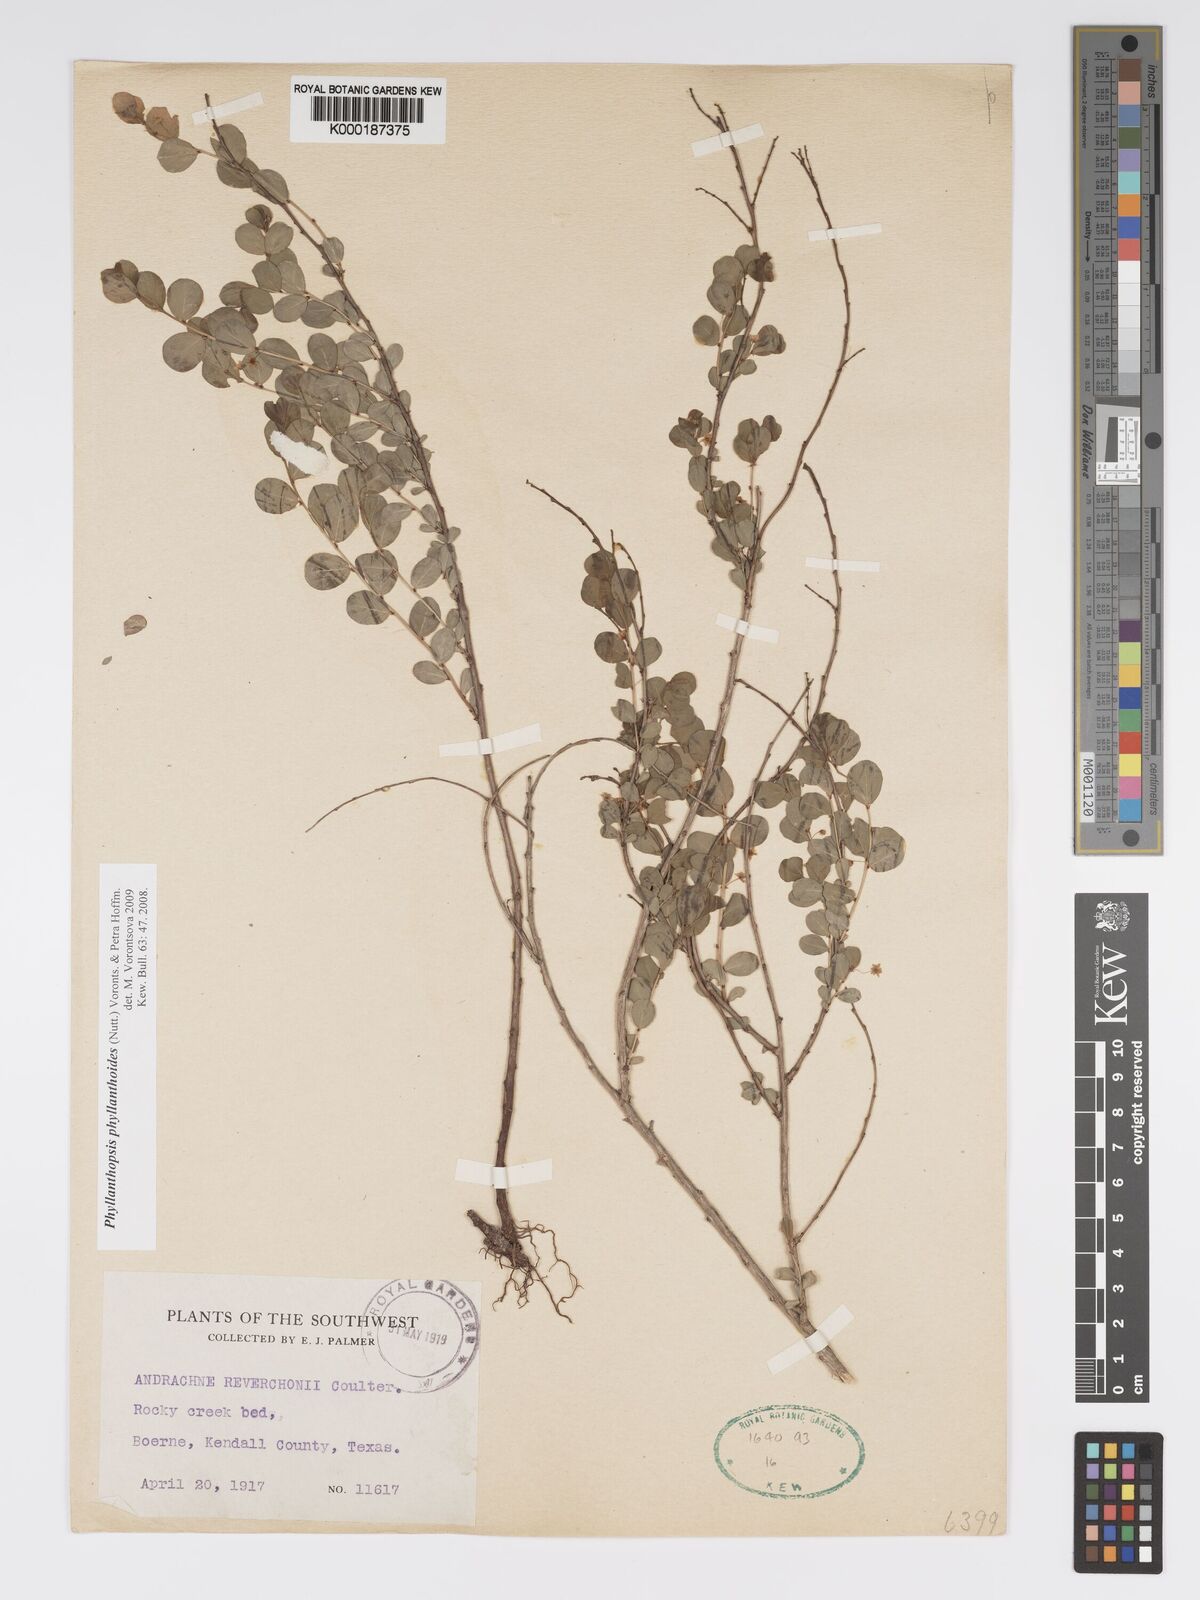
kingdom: Plantae
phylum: Tracheophyta
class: Magnoliopsida
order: Malpighiales
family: Phyllanthaceae
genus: Andrachne
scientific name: Andrachne
